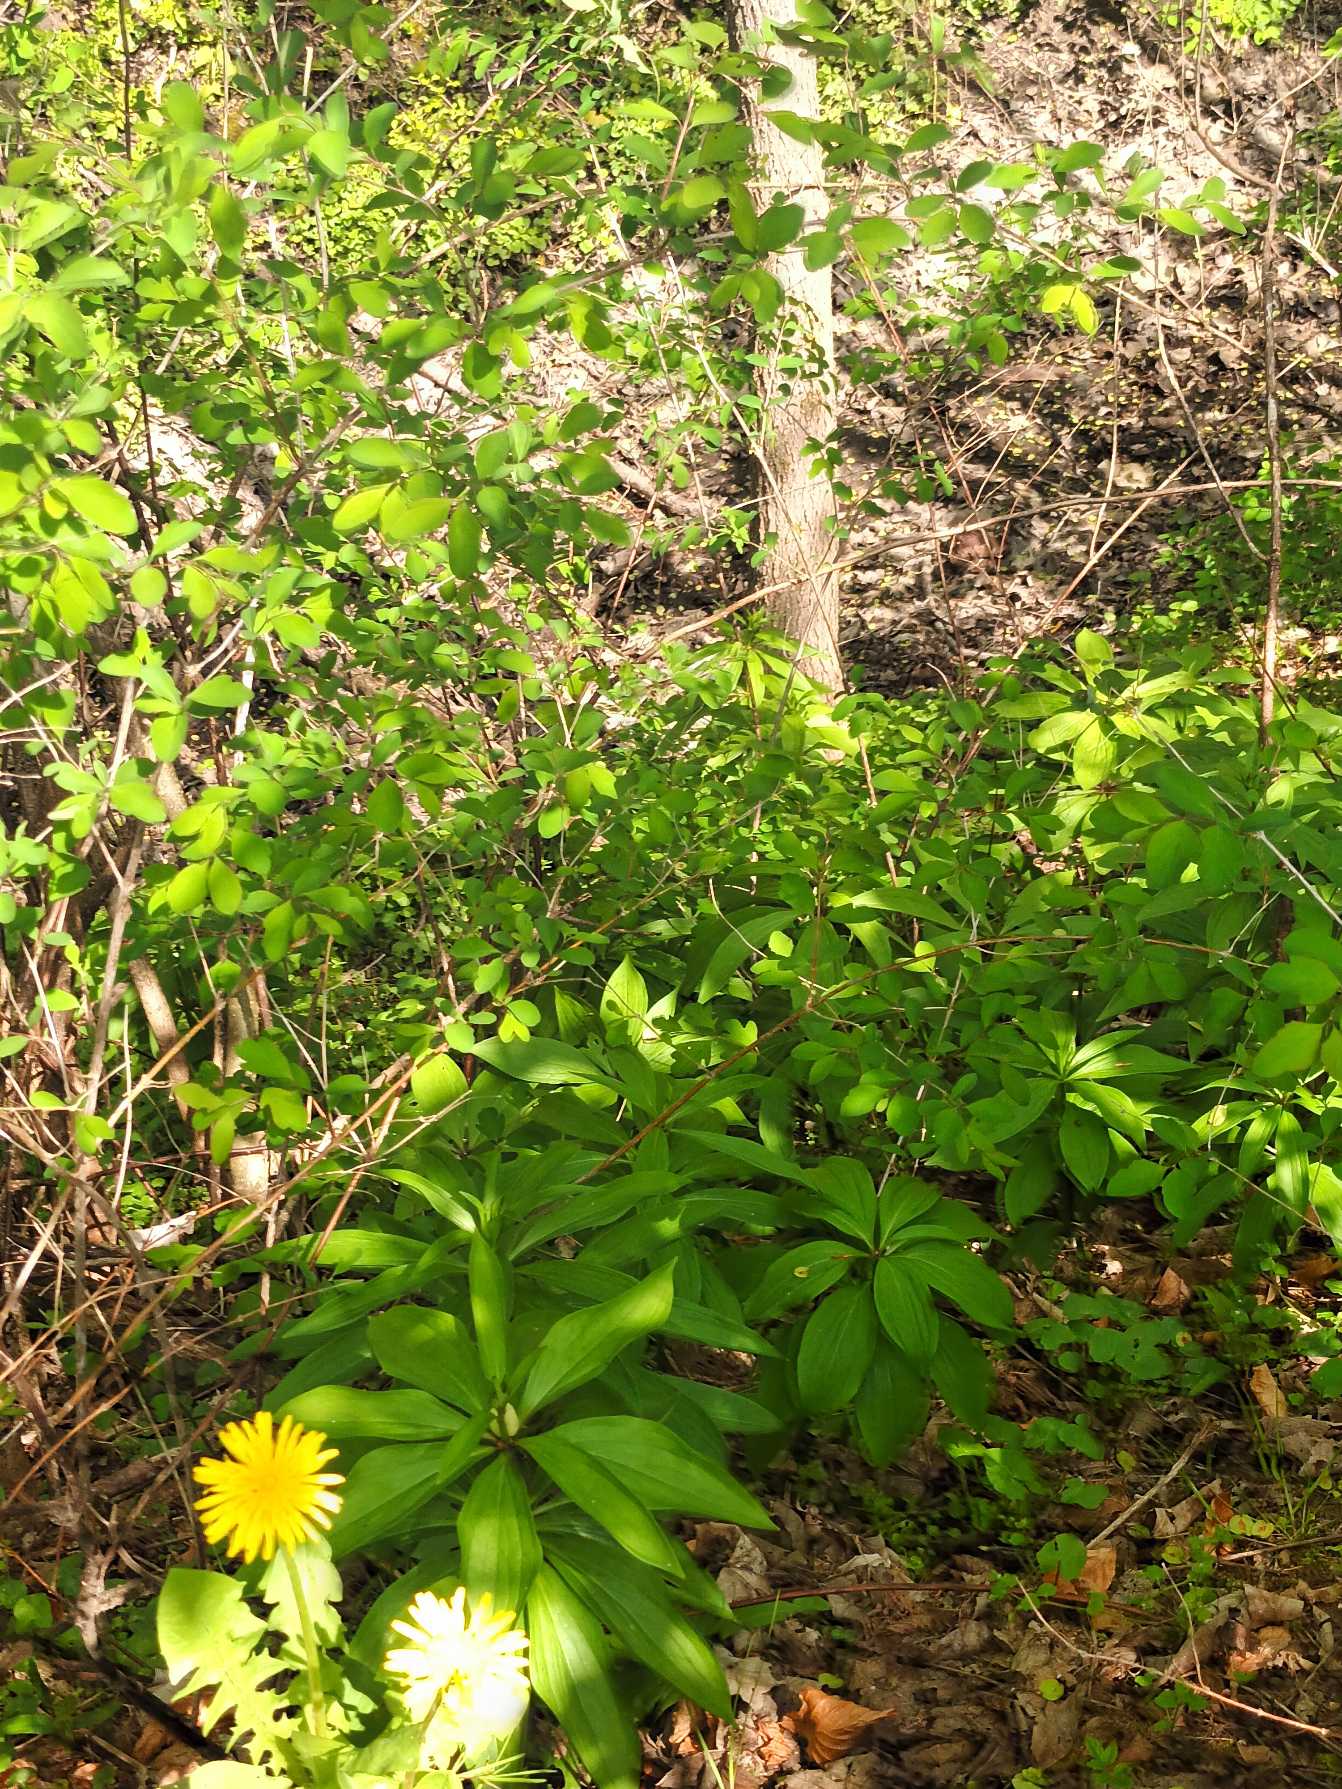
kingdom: Plantae
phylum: Tracheophyta
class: Liliopsida
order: Liliales
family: Liliaceae
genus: Lilium
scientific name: Lilium martagon
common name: Krans-lilje
